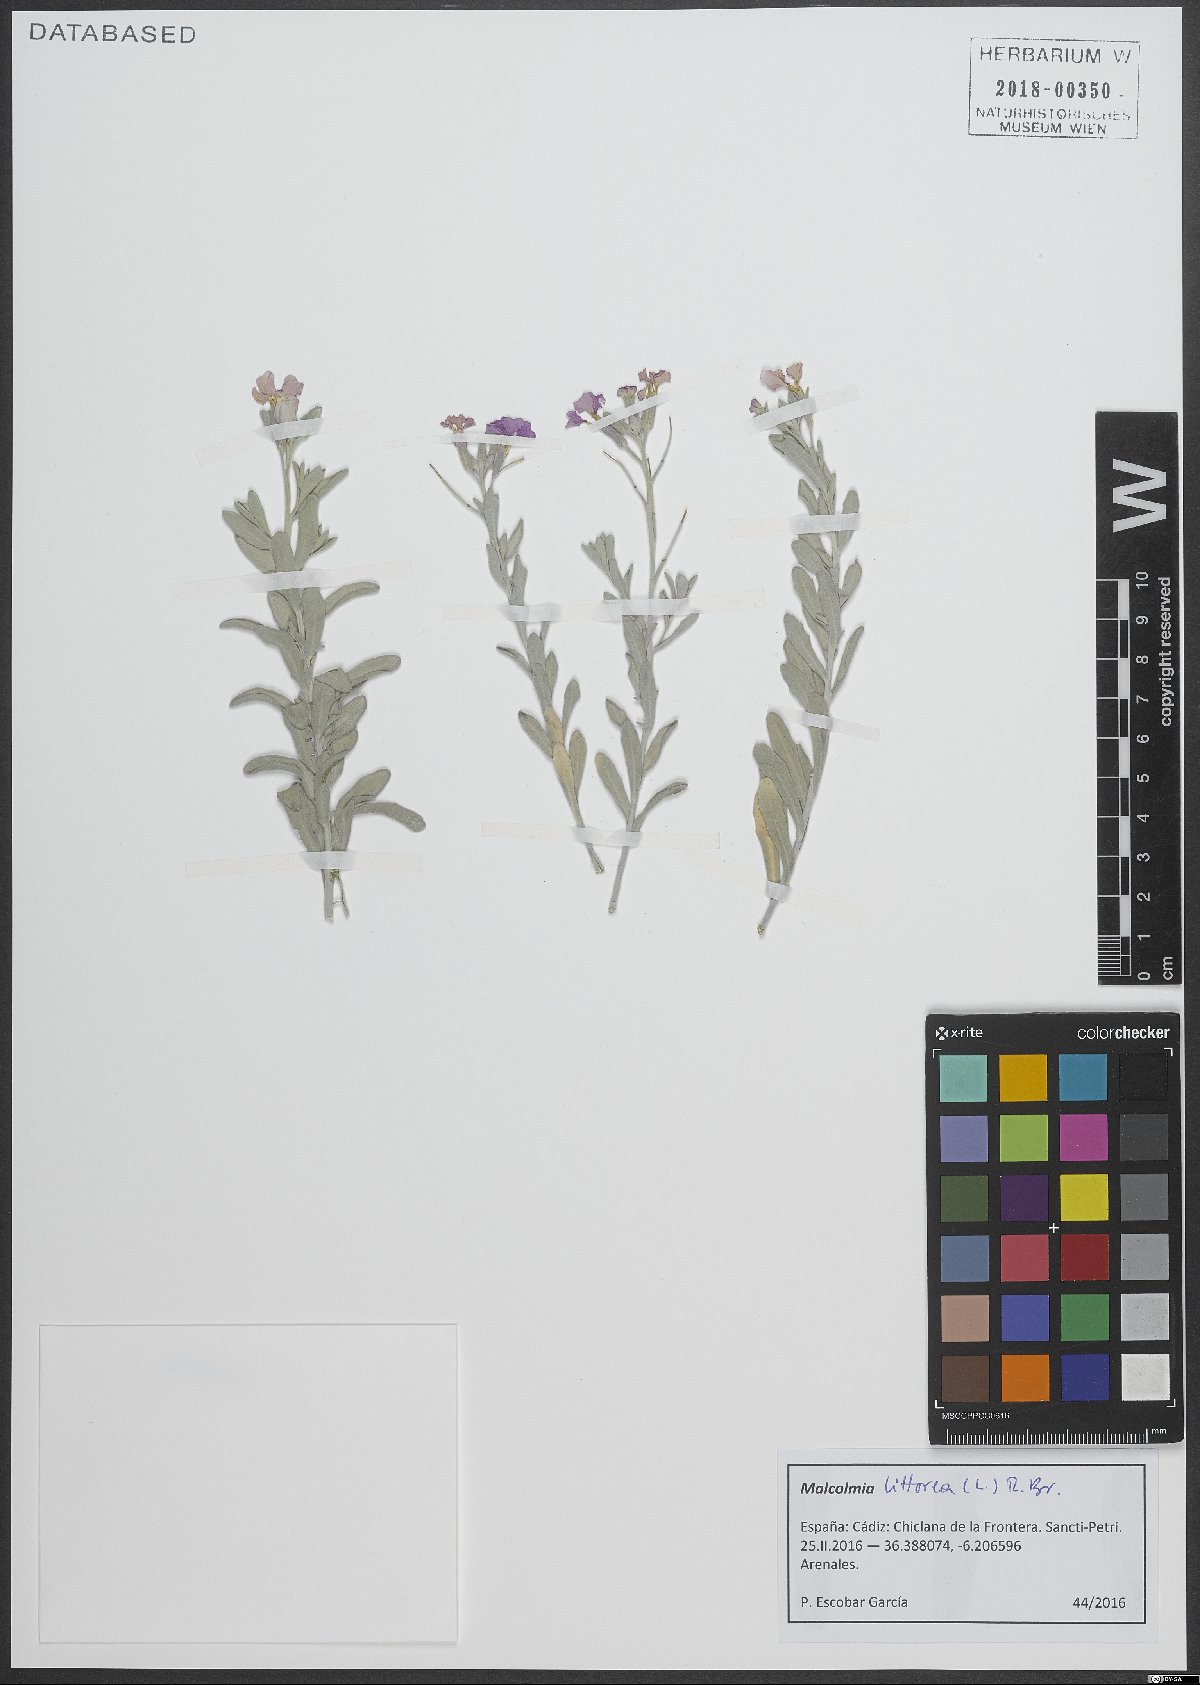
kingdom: Plantae
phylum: Tracheophyta
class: Magnoliopsida
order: Brassicales
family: Brassicaceae
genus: Marcuskochia
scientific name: Marcuskochia littorea
